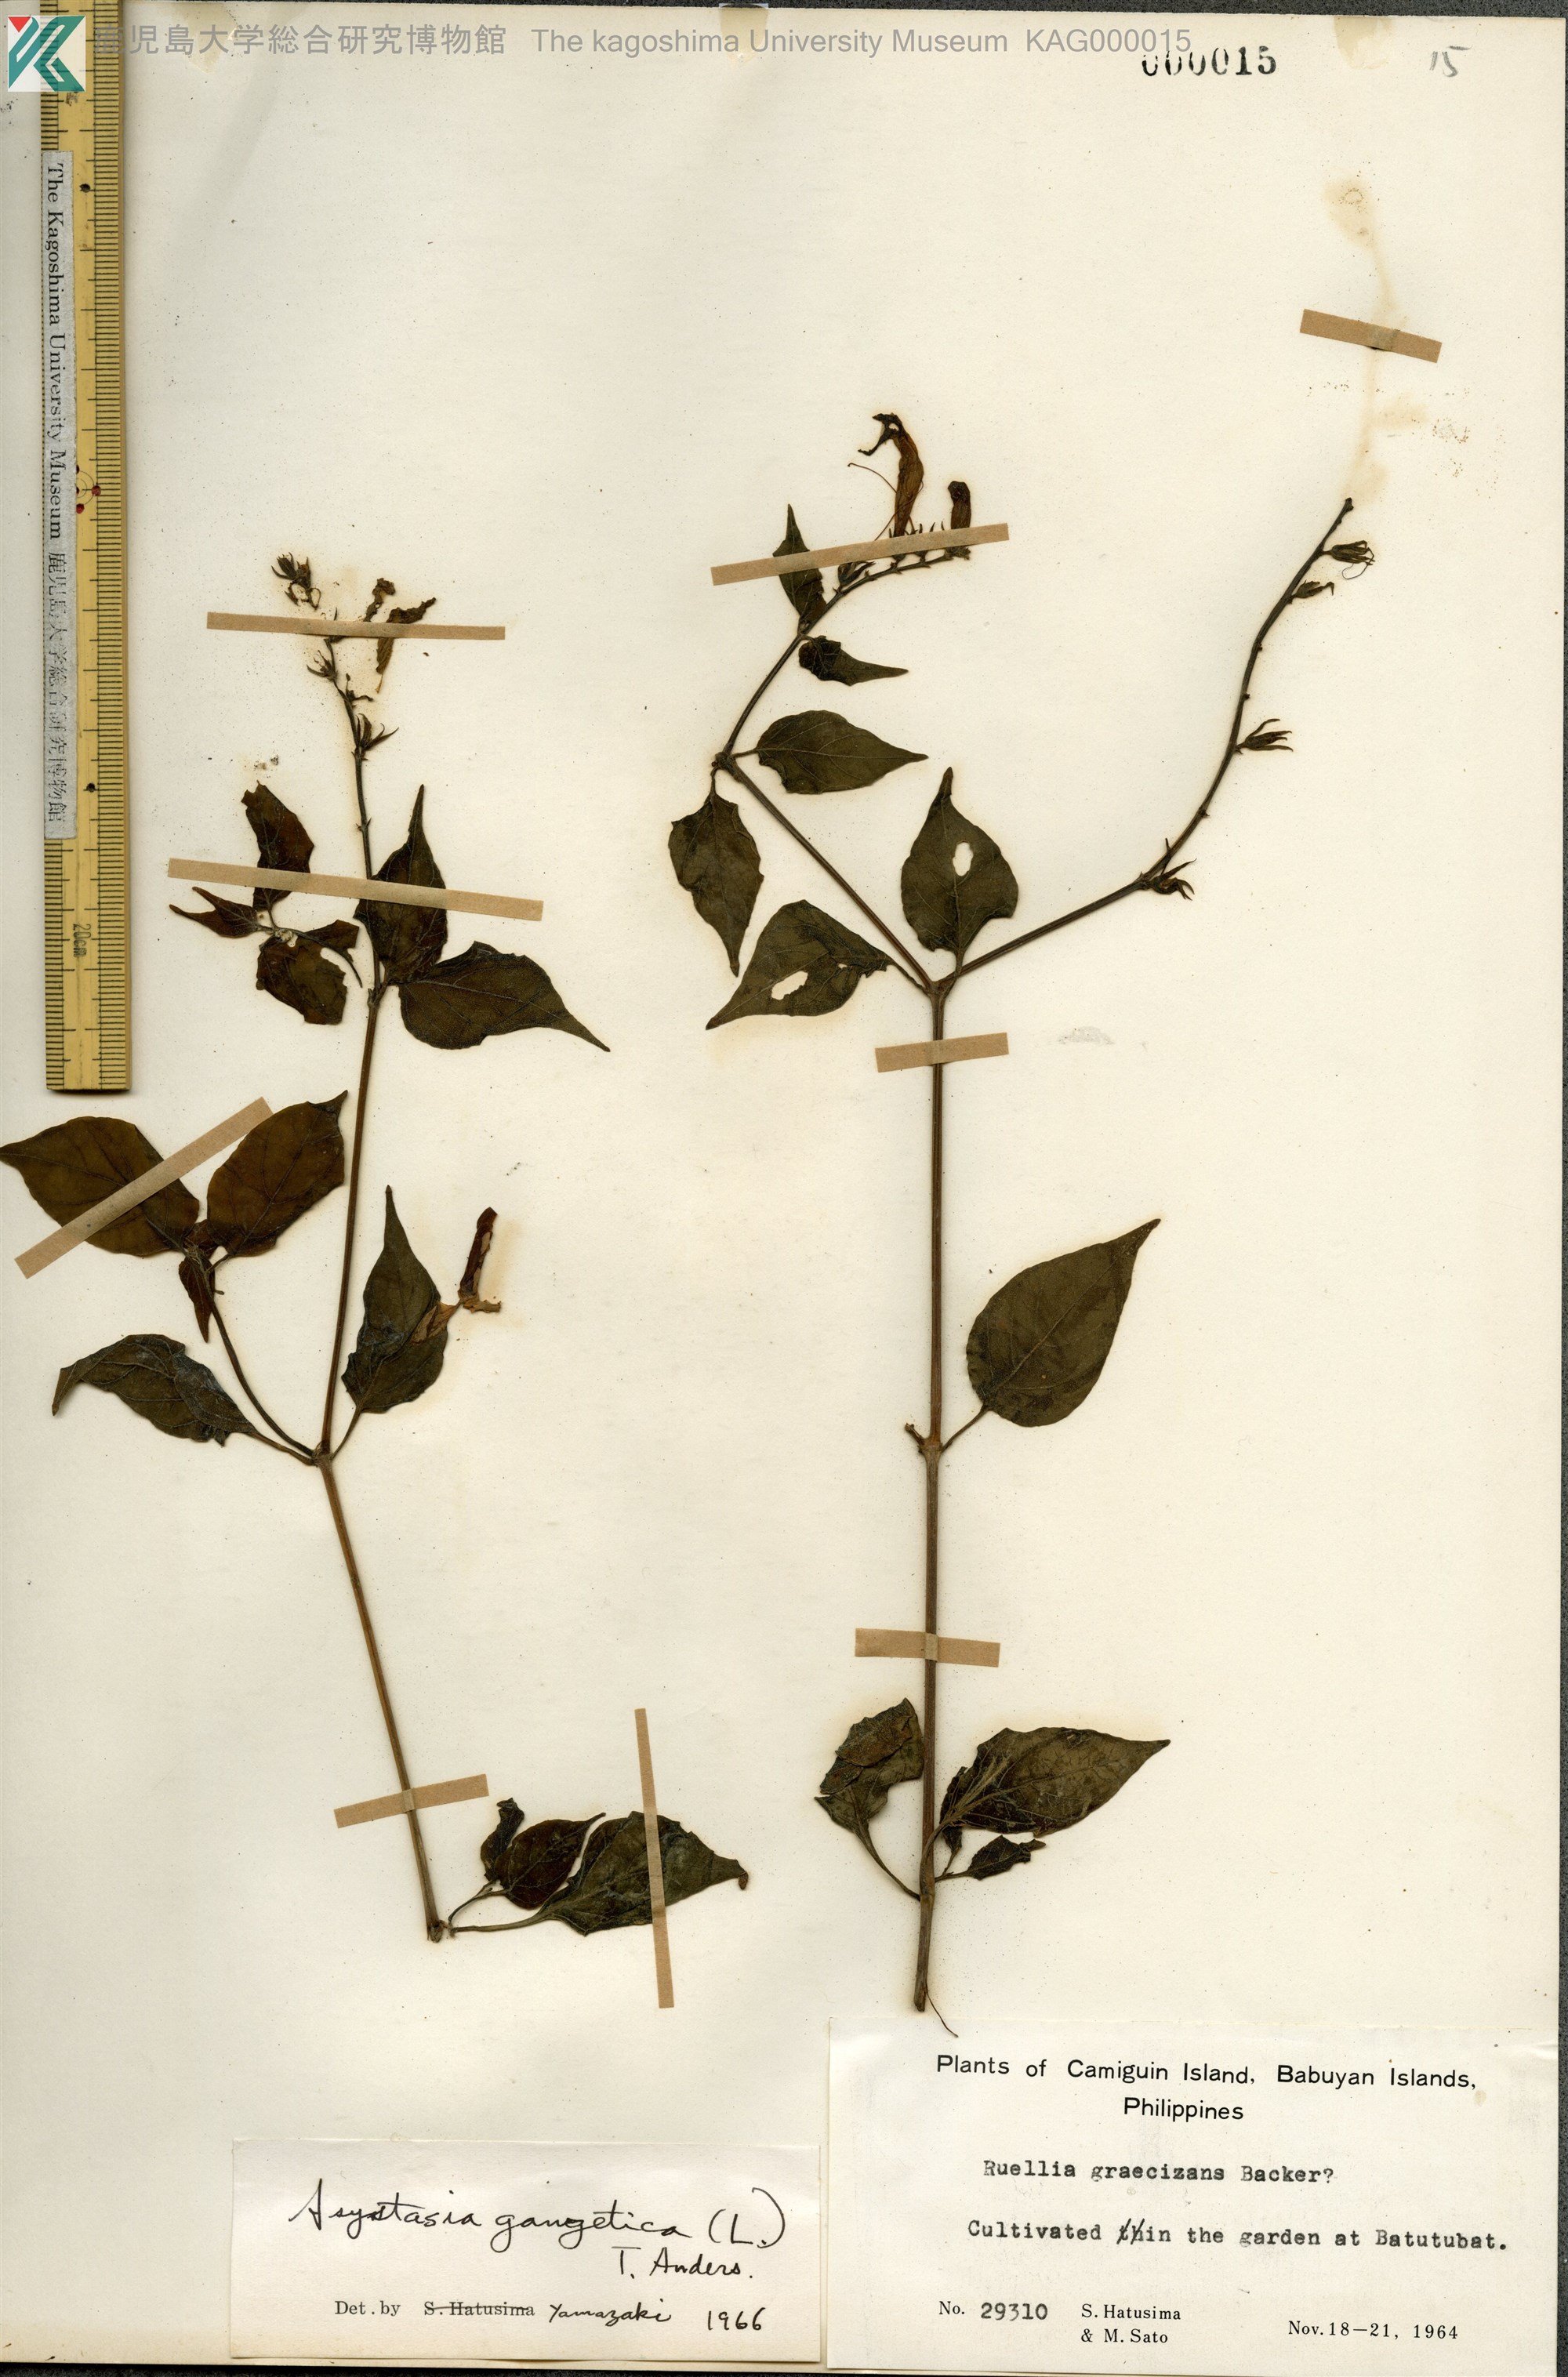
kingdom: Plantae
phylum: Tracheophyta
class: Magnoliopsida
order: Lamiales
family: Acanthaceae
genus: Asystasia
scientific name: Asystasia gangetica
